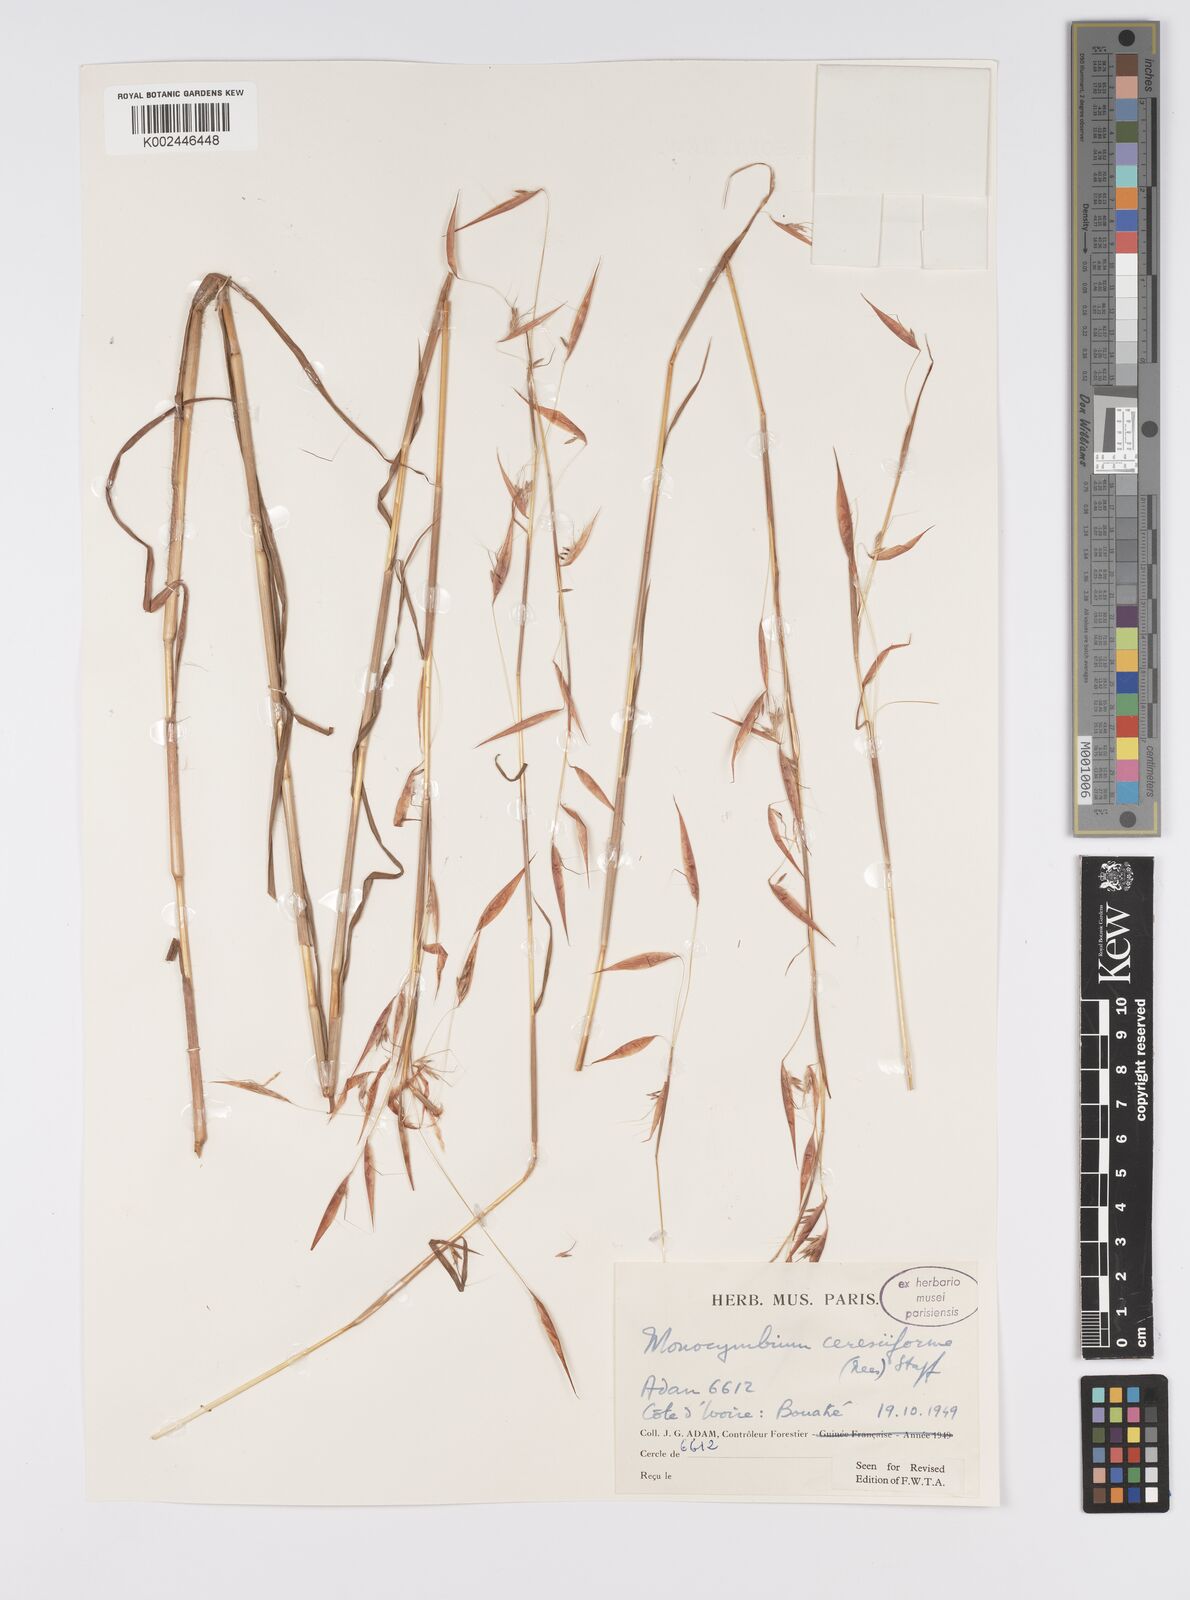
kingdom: Plantae
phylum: Tracheophyta
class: Liliopsida
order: Poales
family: Poaceae
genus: Monocymbium
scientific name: Monocymbium ceresiiforme
